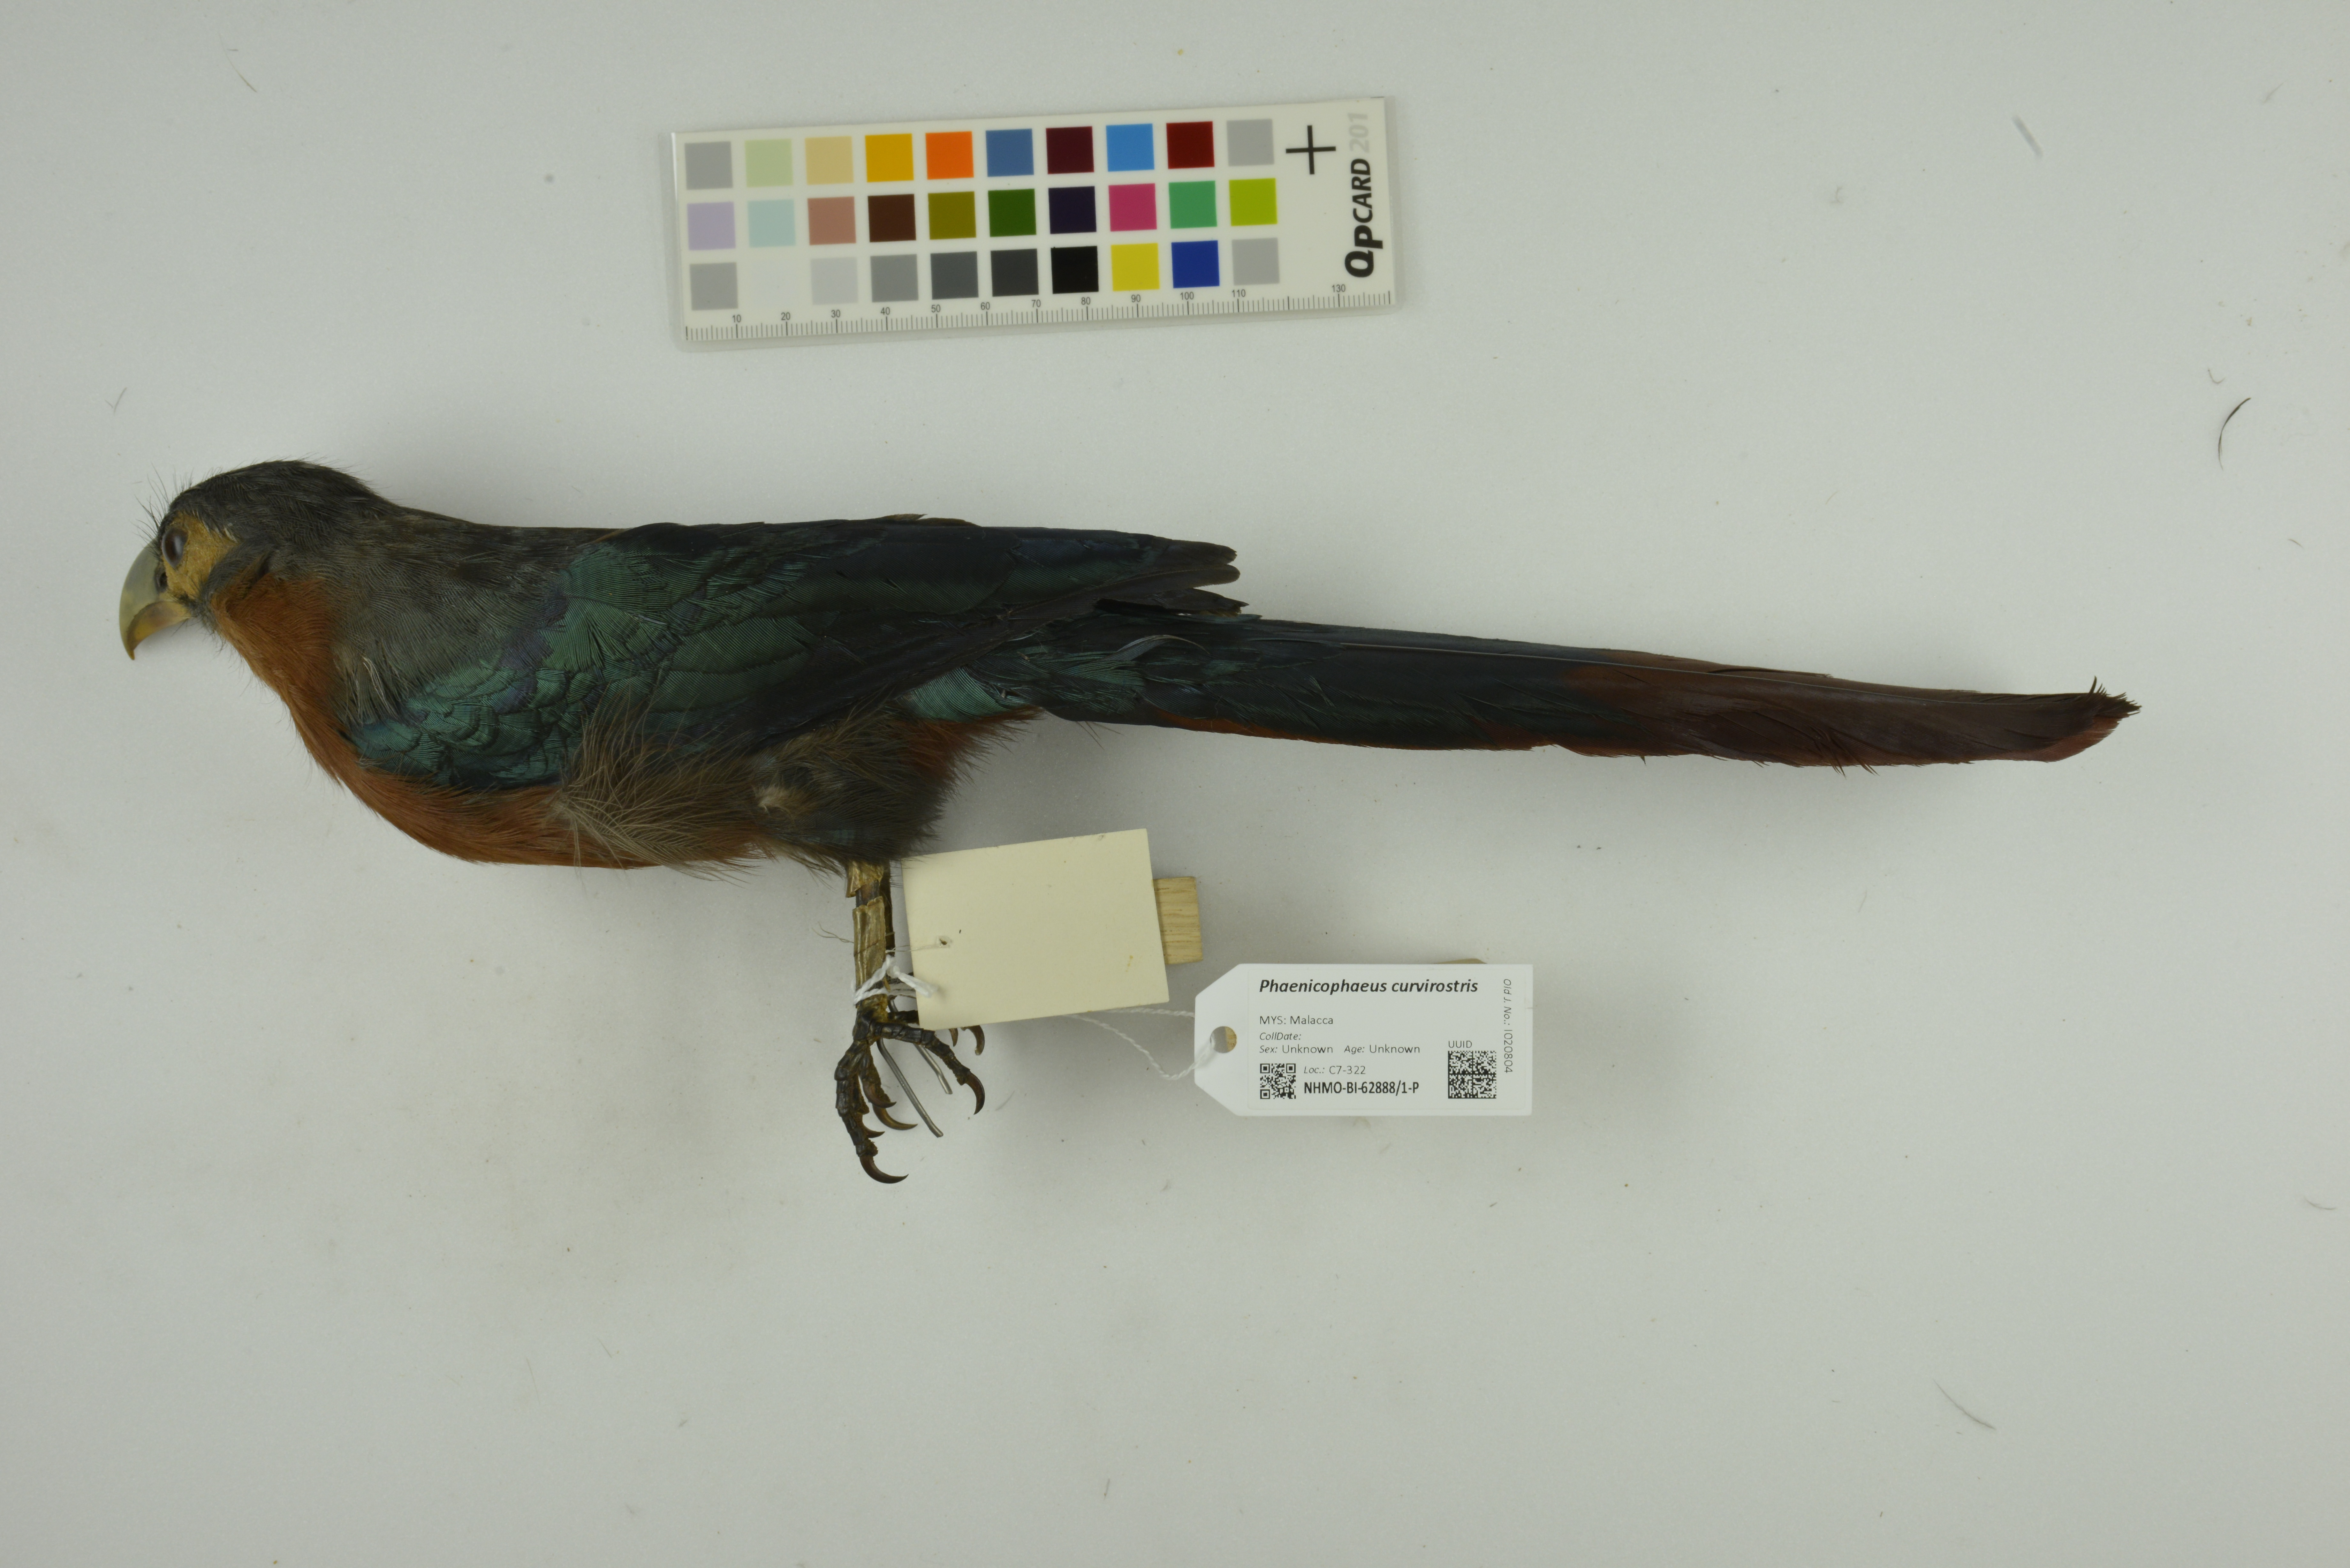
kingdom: Animalia
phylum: Chordata
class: Aves
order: Cuculiformes
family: Cuculidae
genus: Zanclostomus
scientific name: Zanclostomus curvirostris
